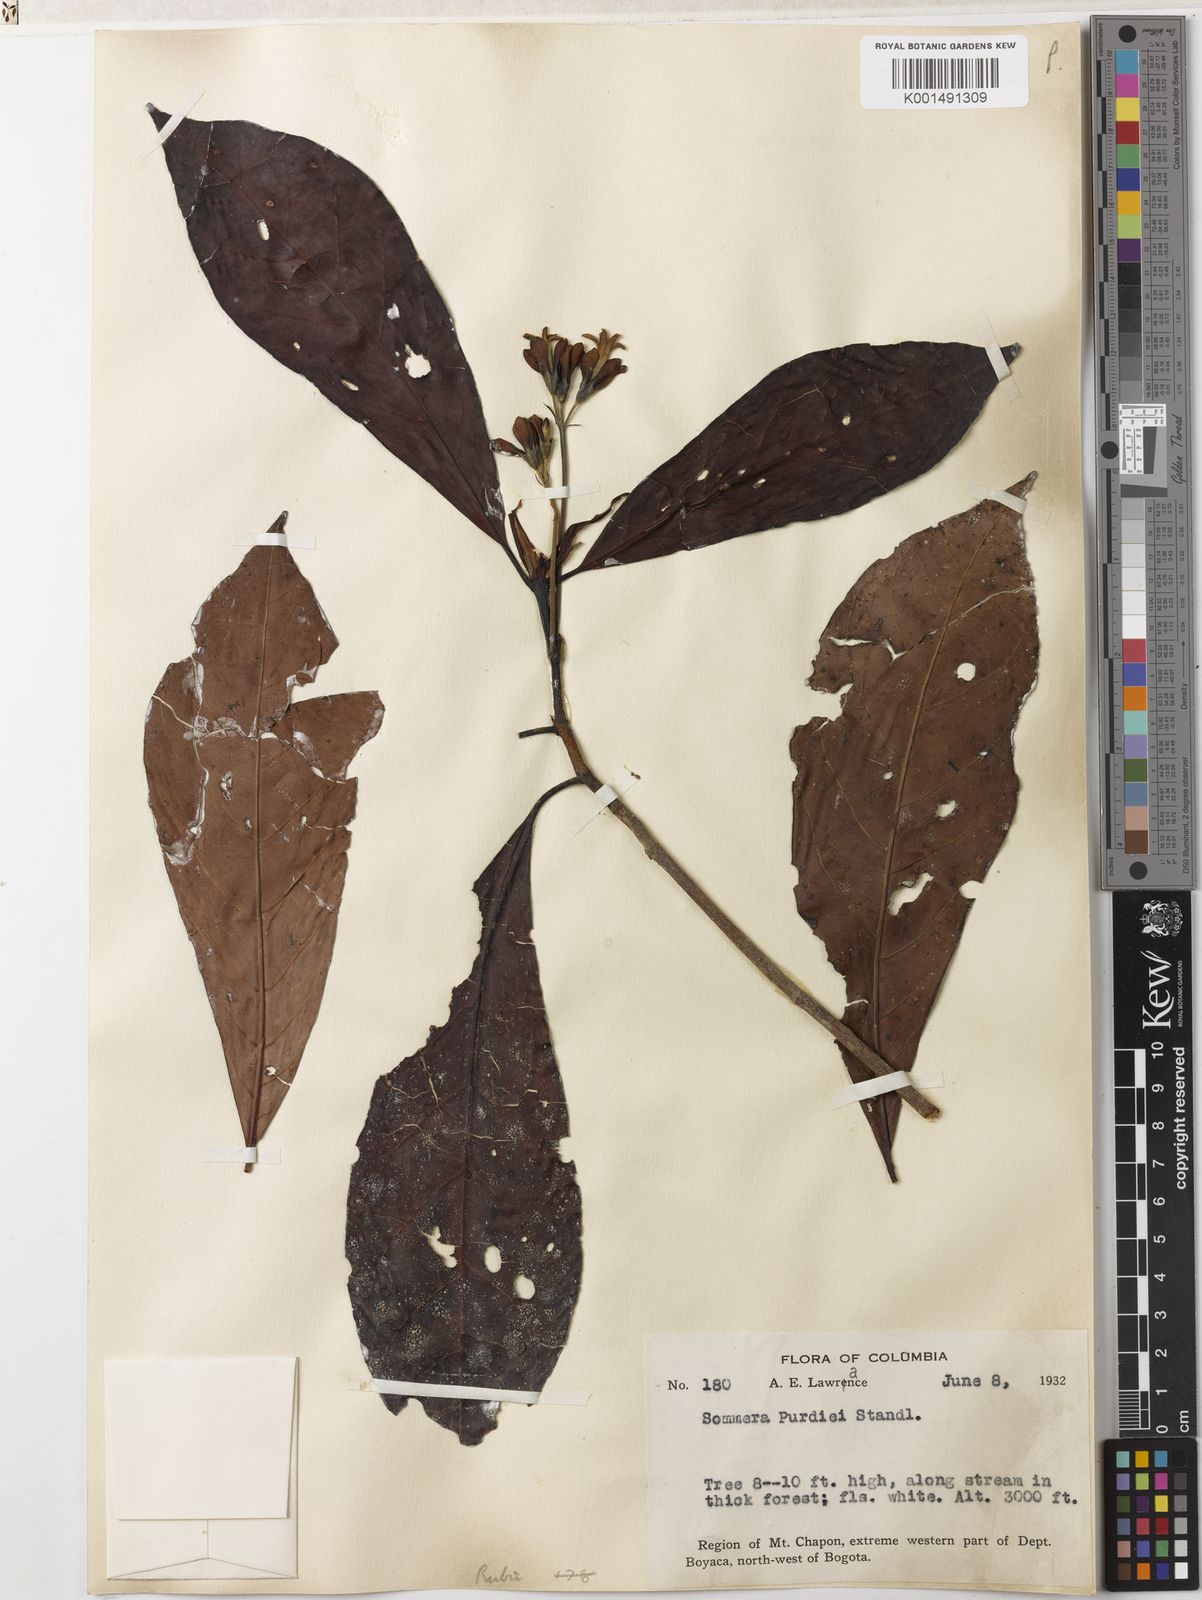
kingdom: Plantae
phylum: Tracheophyta
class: Magnoliopsida
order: Gentianales
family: Rubiaceae
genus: Sommera
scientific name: Sommera purdiei
